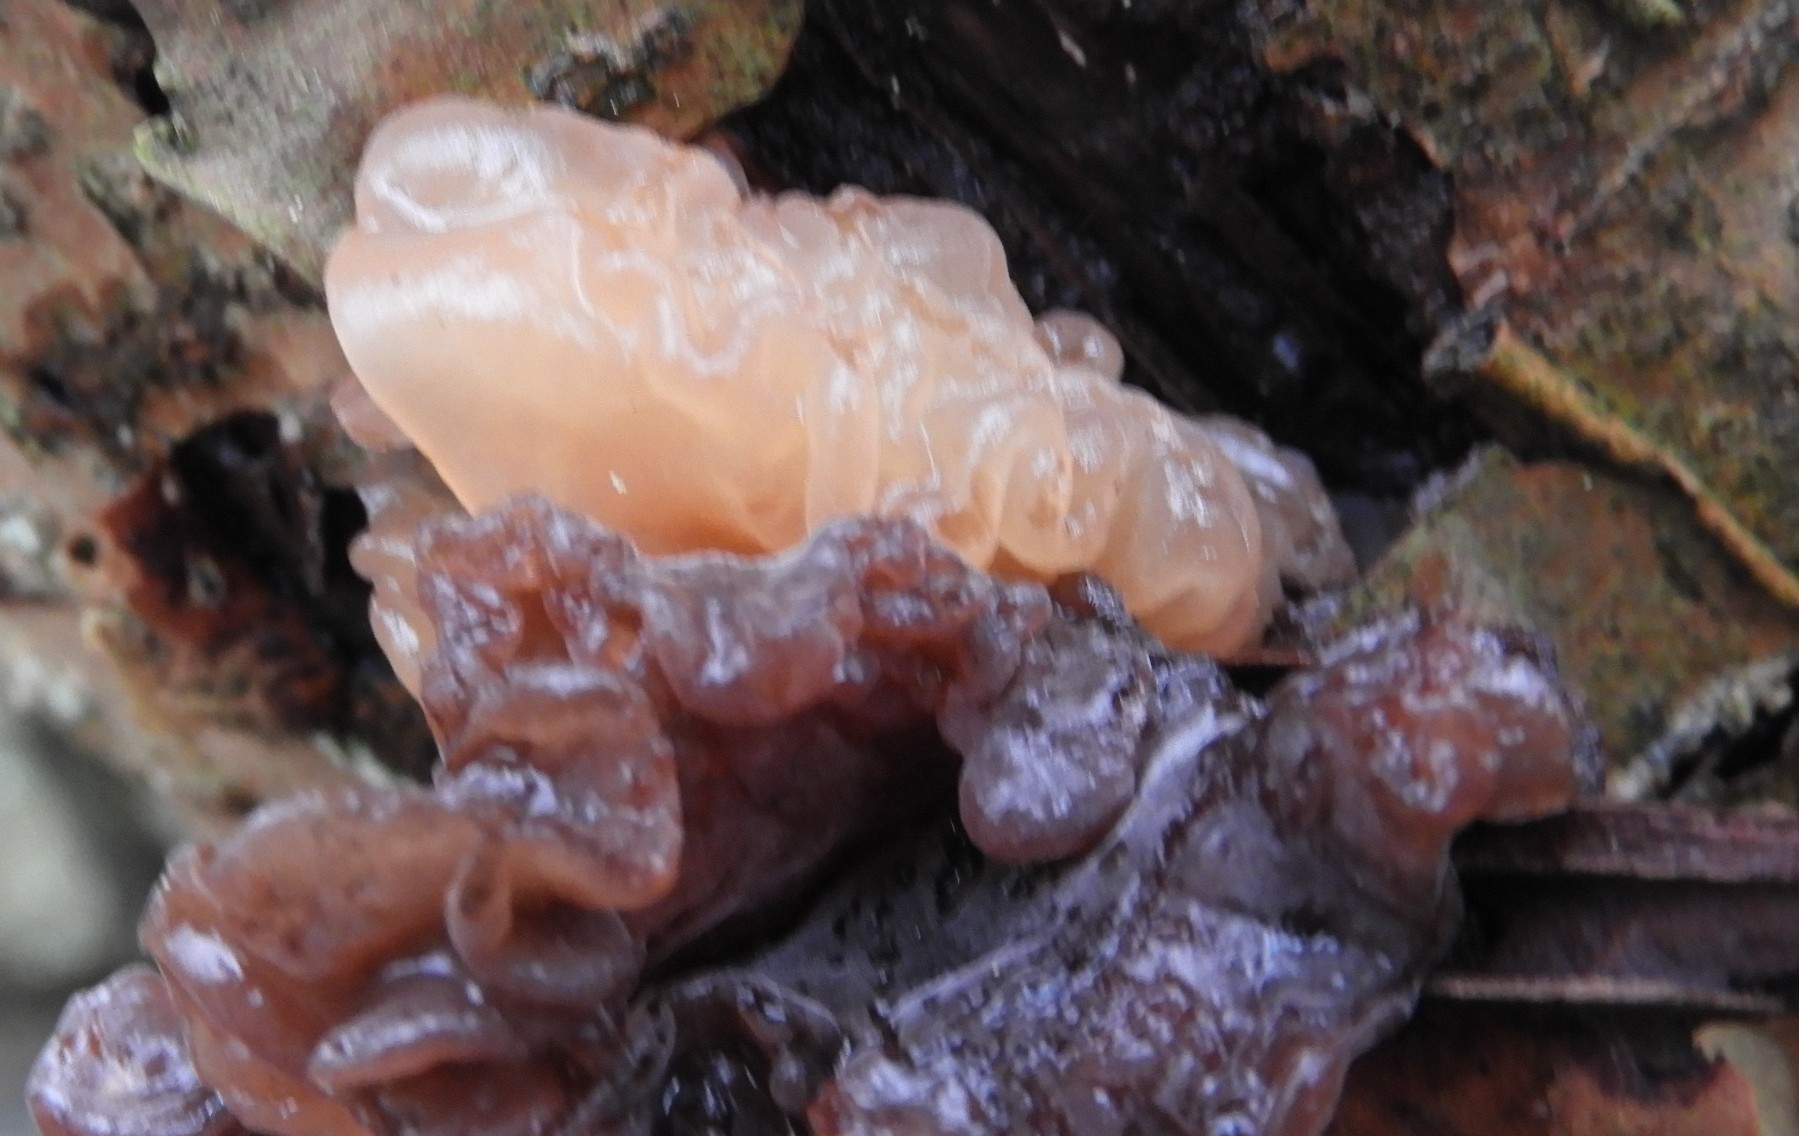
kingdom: Fungi
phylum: Basidiomycota
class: Tremellomycetes
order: Tremellales
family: Tremellaceae
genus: Phaeotremella
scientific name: Phaeotremella frondosa
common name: kæmpe-bævresvamp
